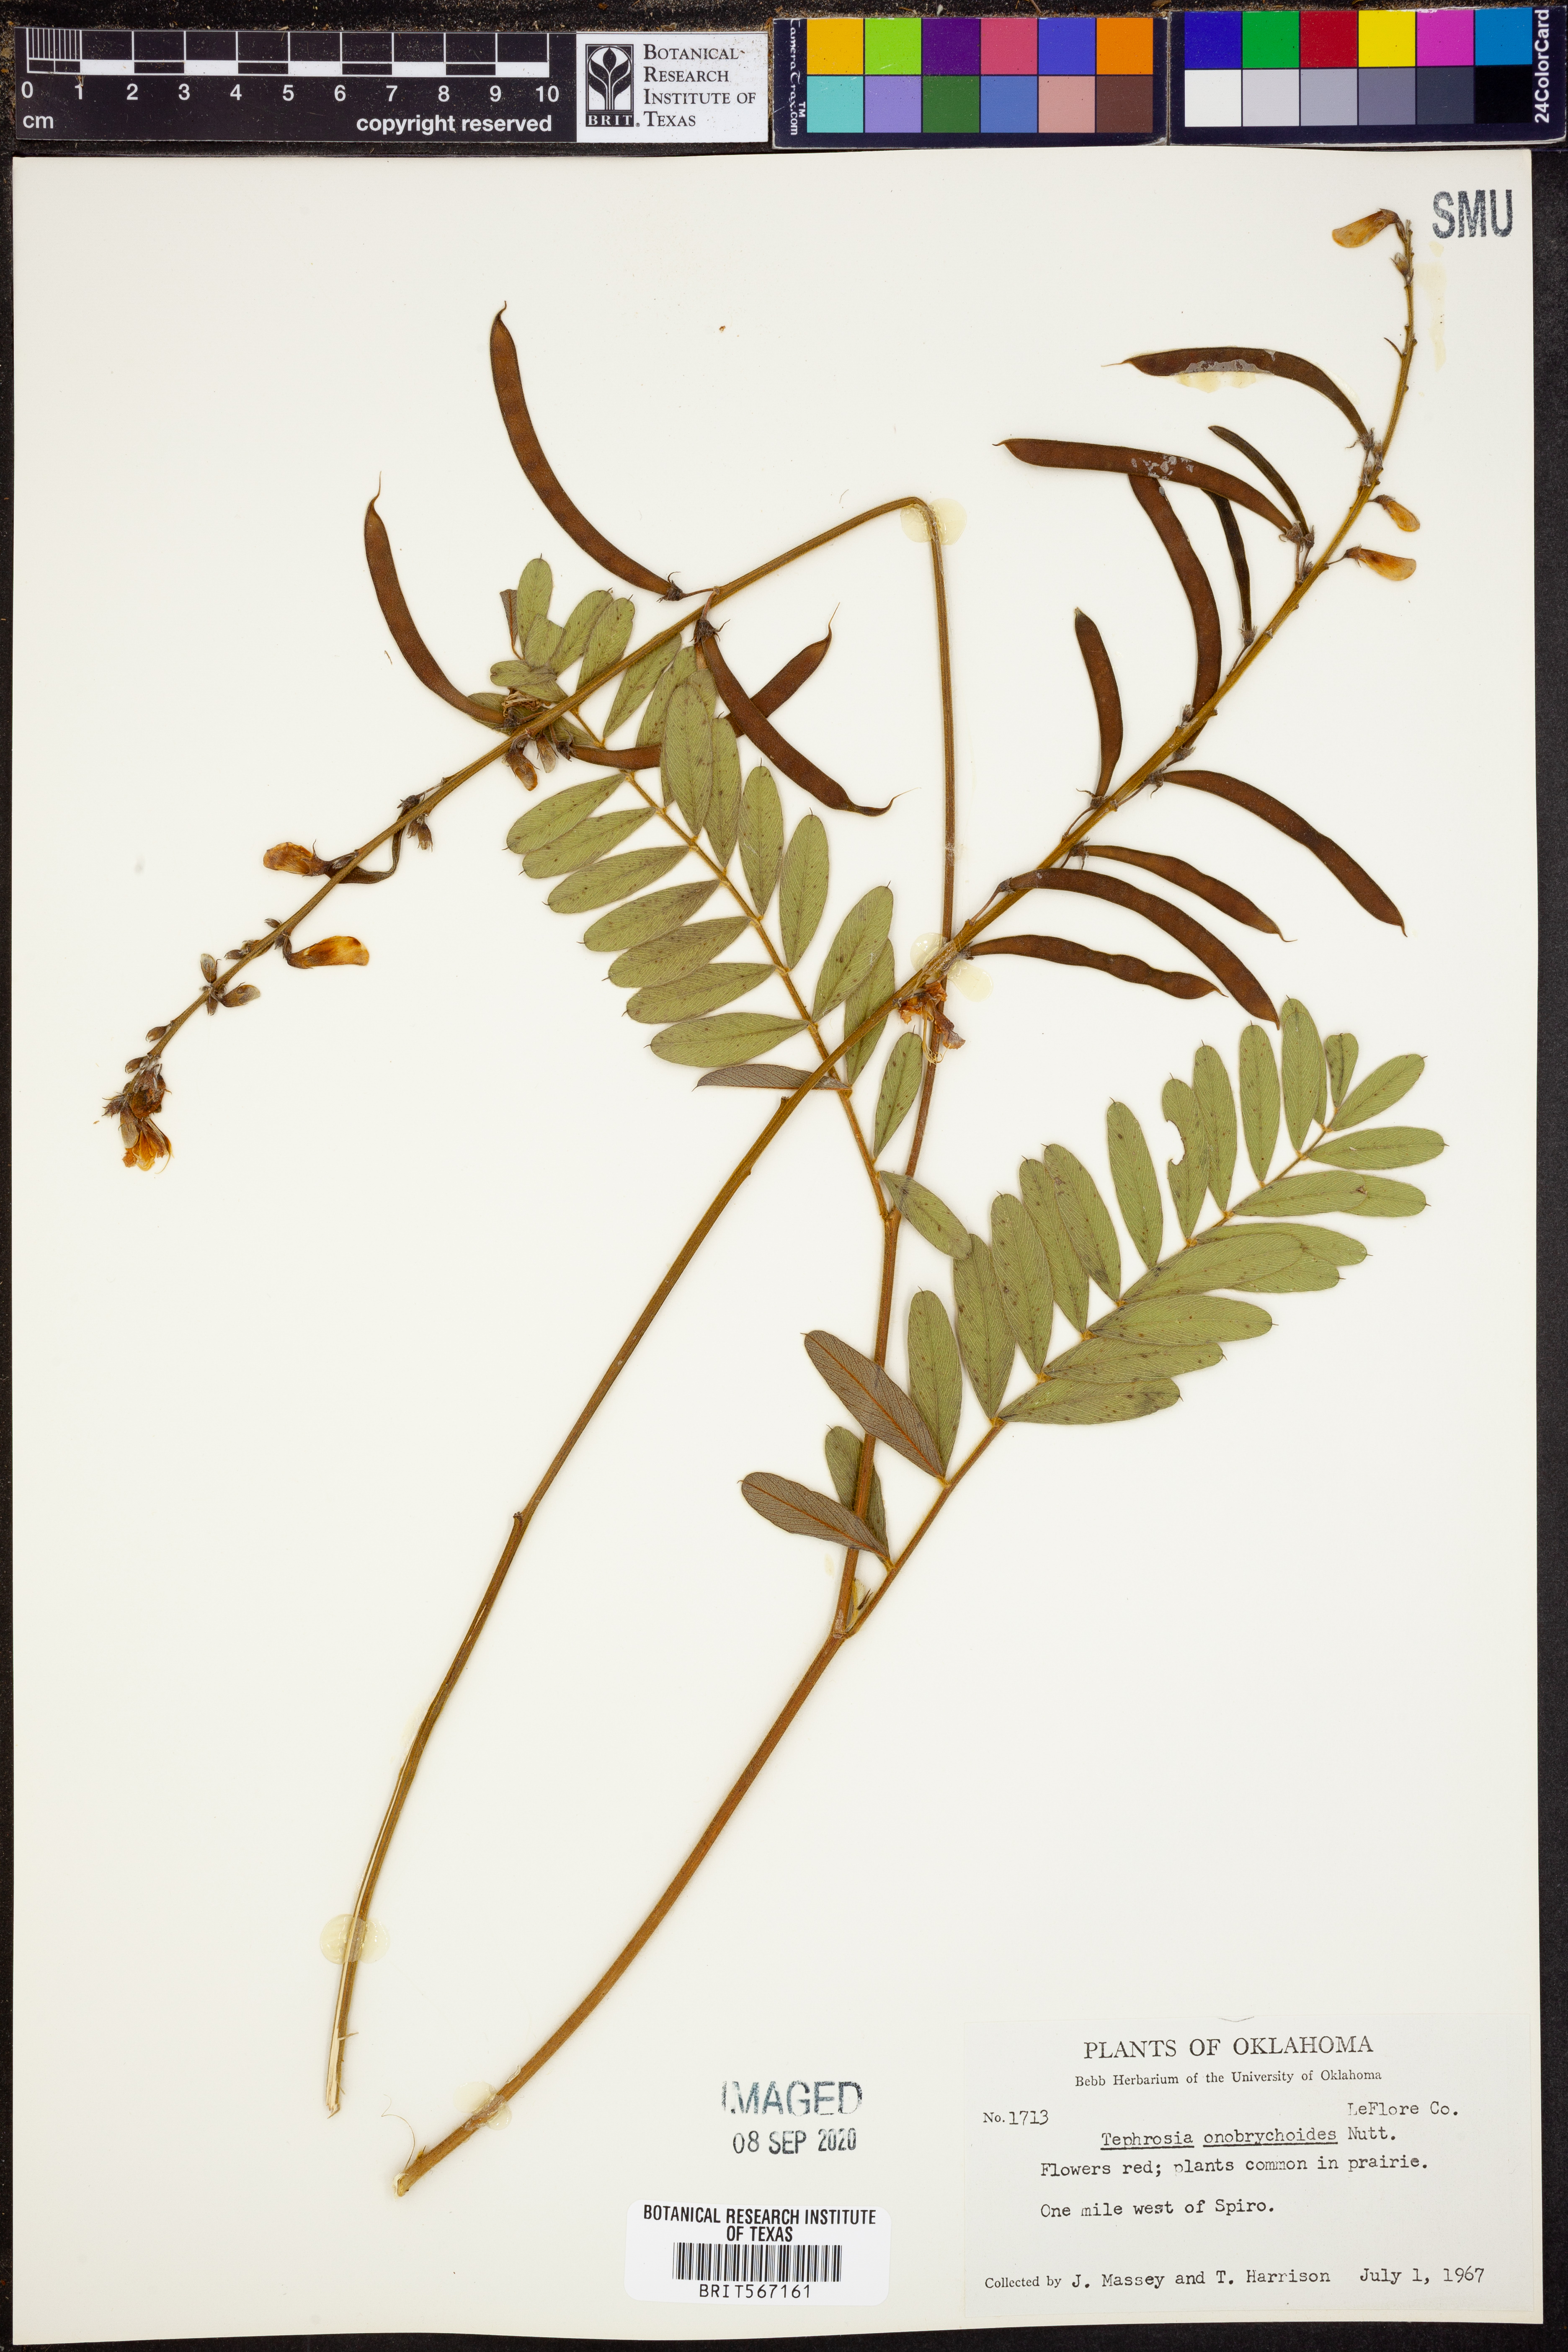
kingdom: Plantae
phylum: Tracheophyta
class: Magnoliopsida
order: Fabales
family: Fabaceae
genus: Tephrosia
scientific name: Tephrosia onobrychoides
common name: Multi-bloom hoary-pea
